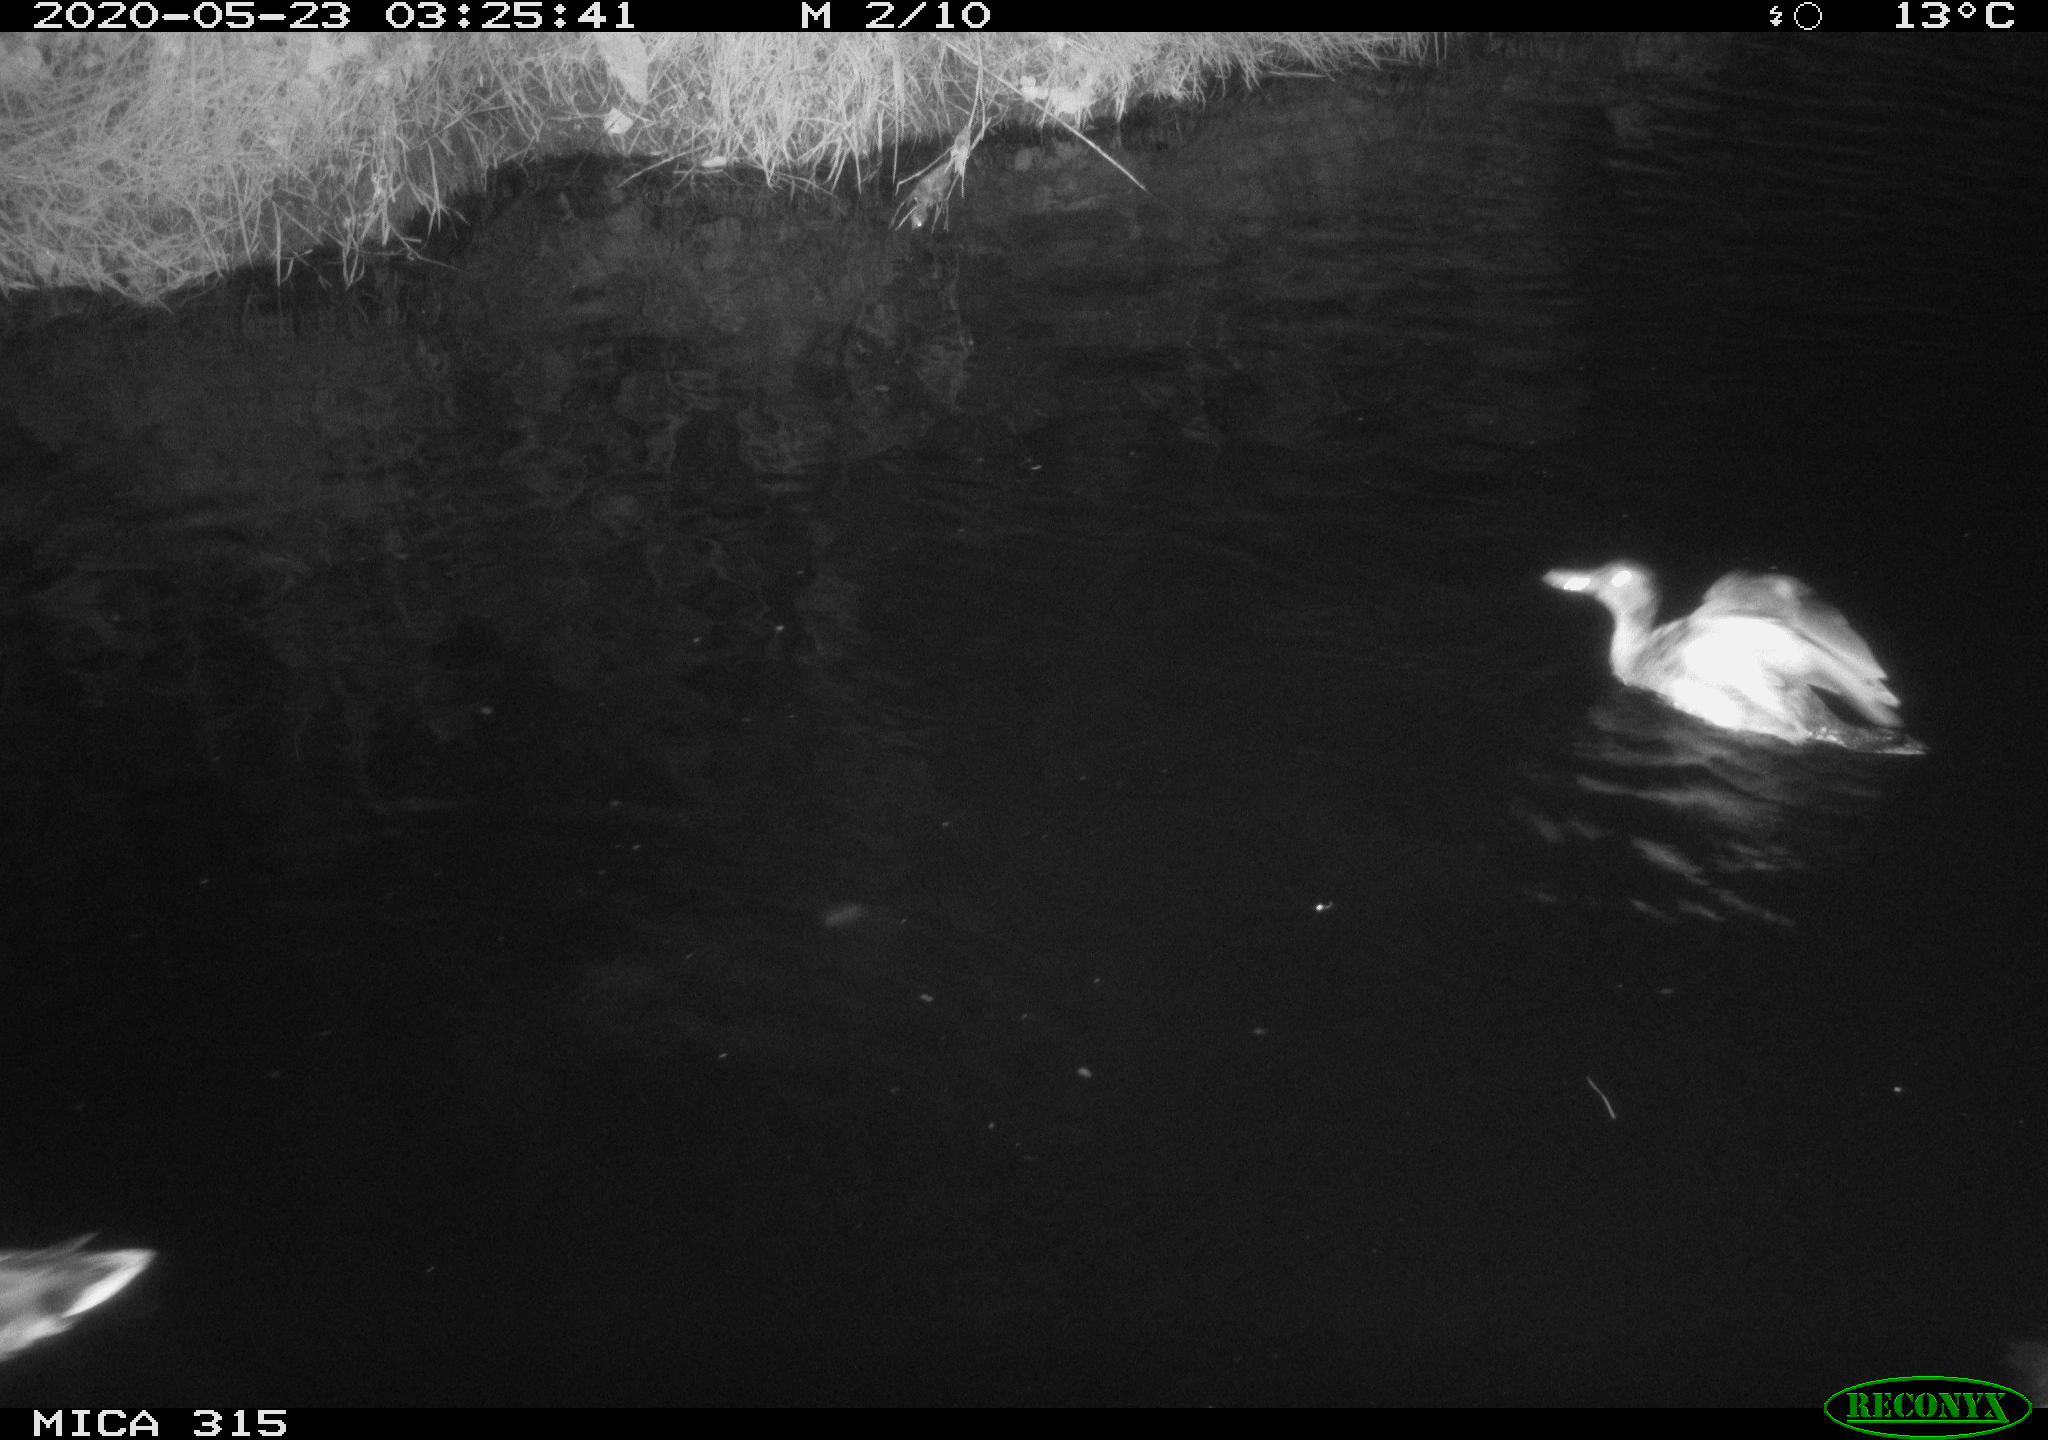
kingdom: Animalia
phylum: Chordata
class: Aves
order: Pelecaniformes
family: Ardeidae
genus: Ardea
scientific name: Ardea cinerea
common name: Grey heron
